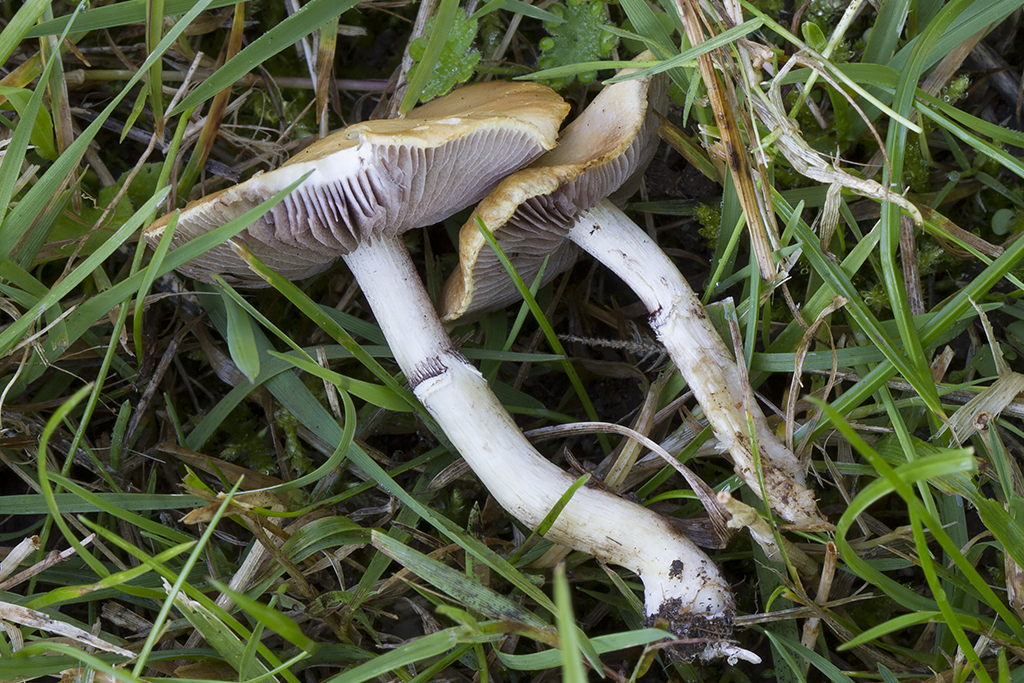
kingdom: Fungi
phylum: Basidiomycota
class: Agaricomycetes
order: Agaricales
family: Hymenogastraceae
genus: Psilocybe
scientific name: Psilocybe coronilla
